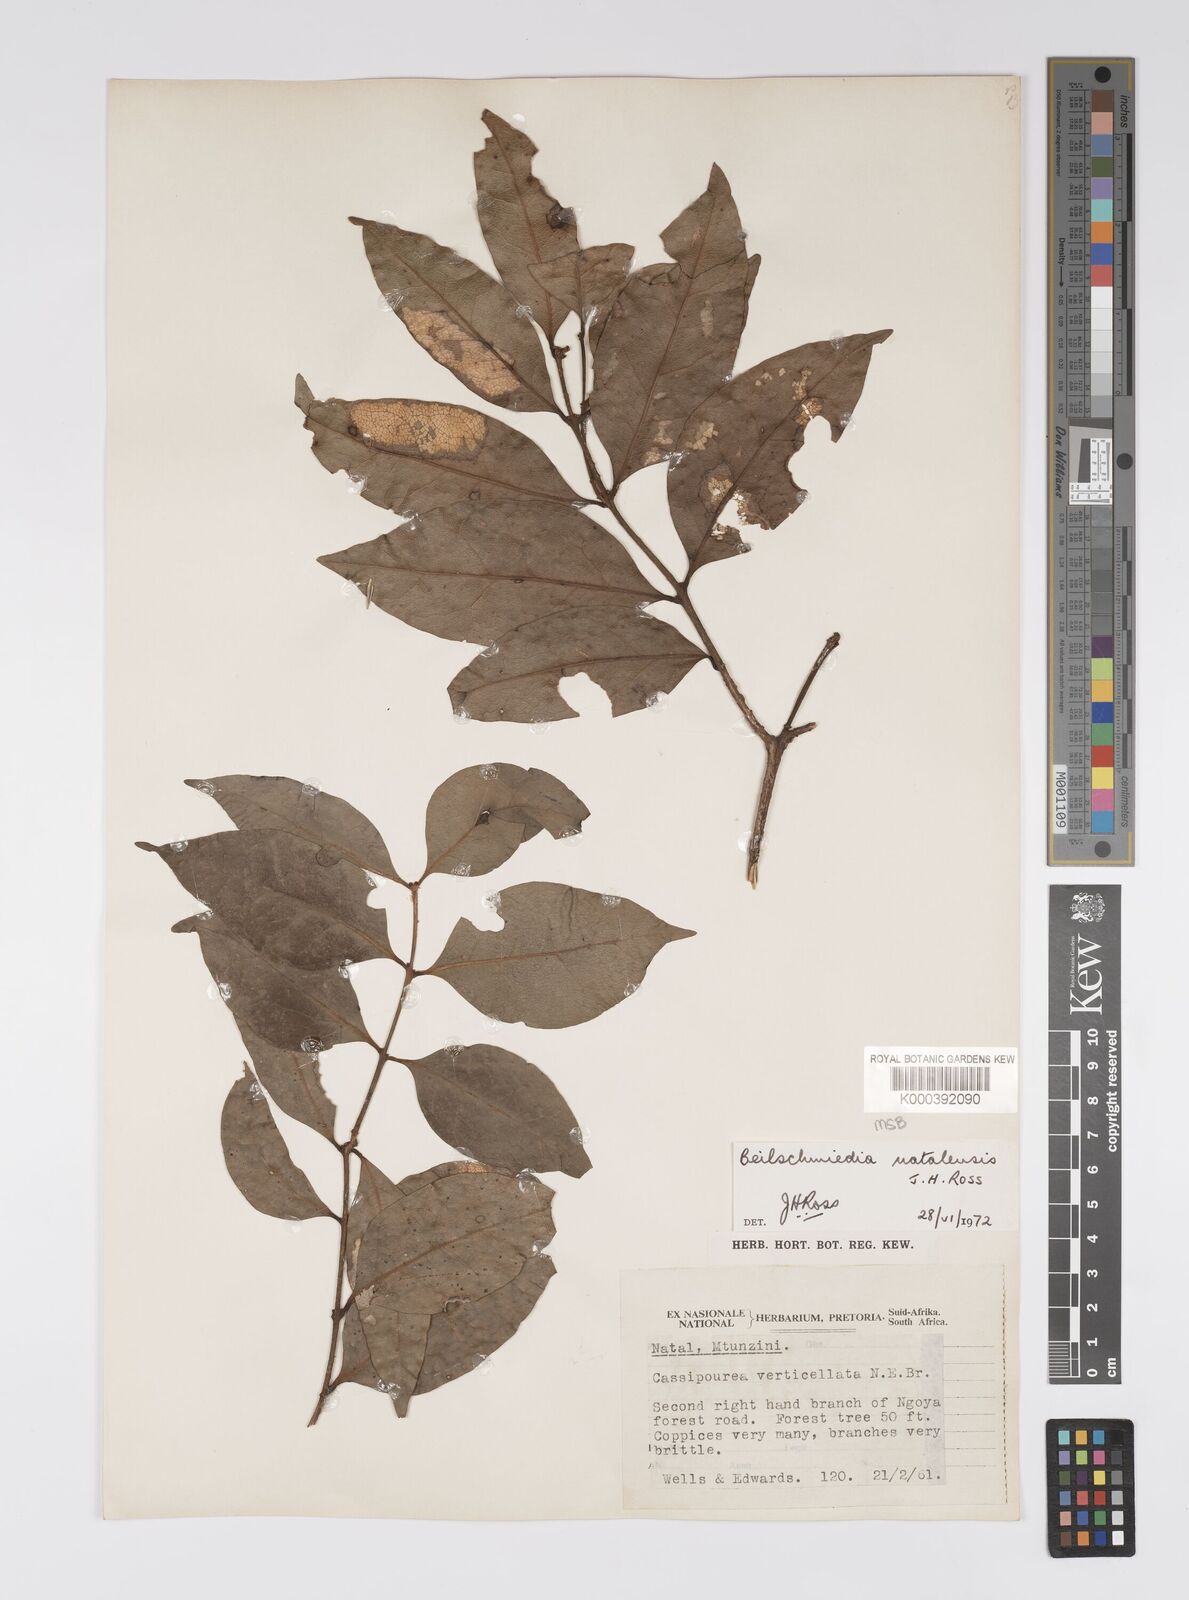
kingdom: Plantae
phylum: Tracheophyta
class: Magnoliopsida
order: Laurales
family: Lauraceae
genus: Dahlgrenodendron
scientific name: Dahlgrenodendron natalense
